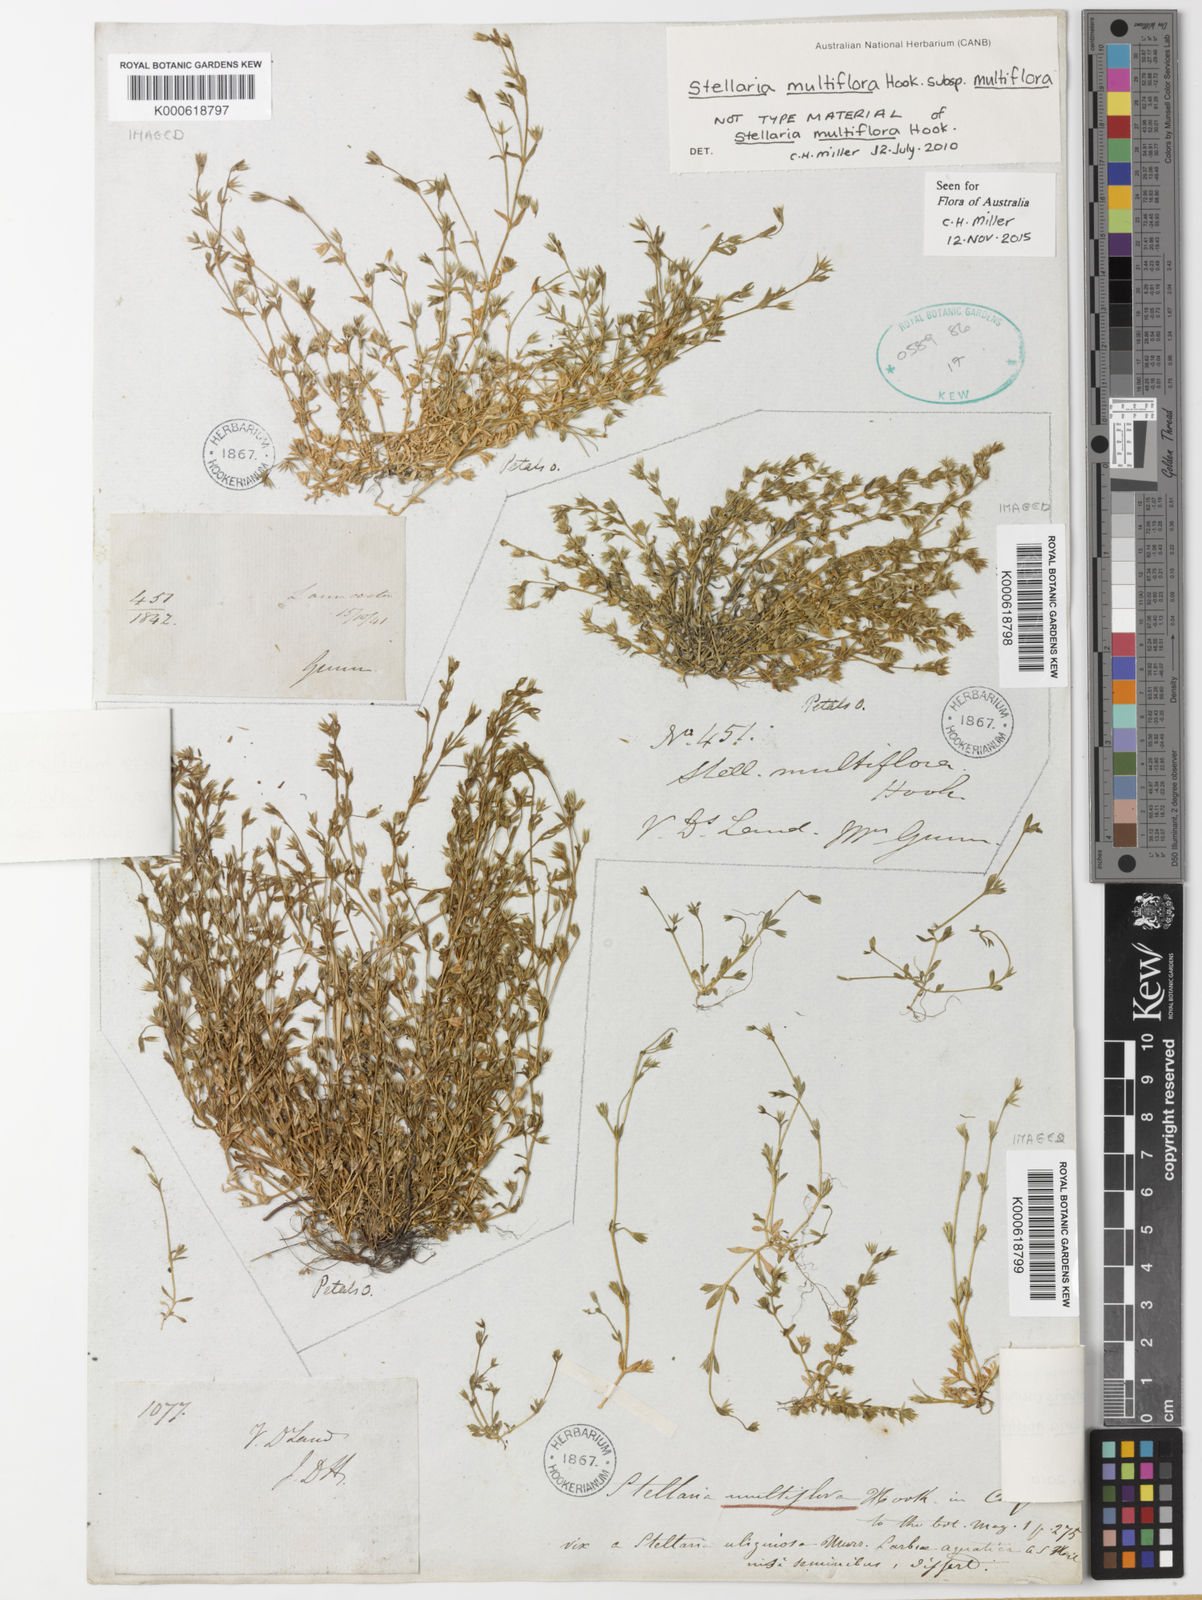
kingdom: Plantae
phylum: Tracheophyta
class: Magnoliopsida
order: Caryophyllales
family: Caryophyllaceae
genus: Stellaria
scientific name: Stellaria multiflora
